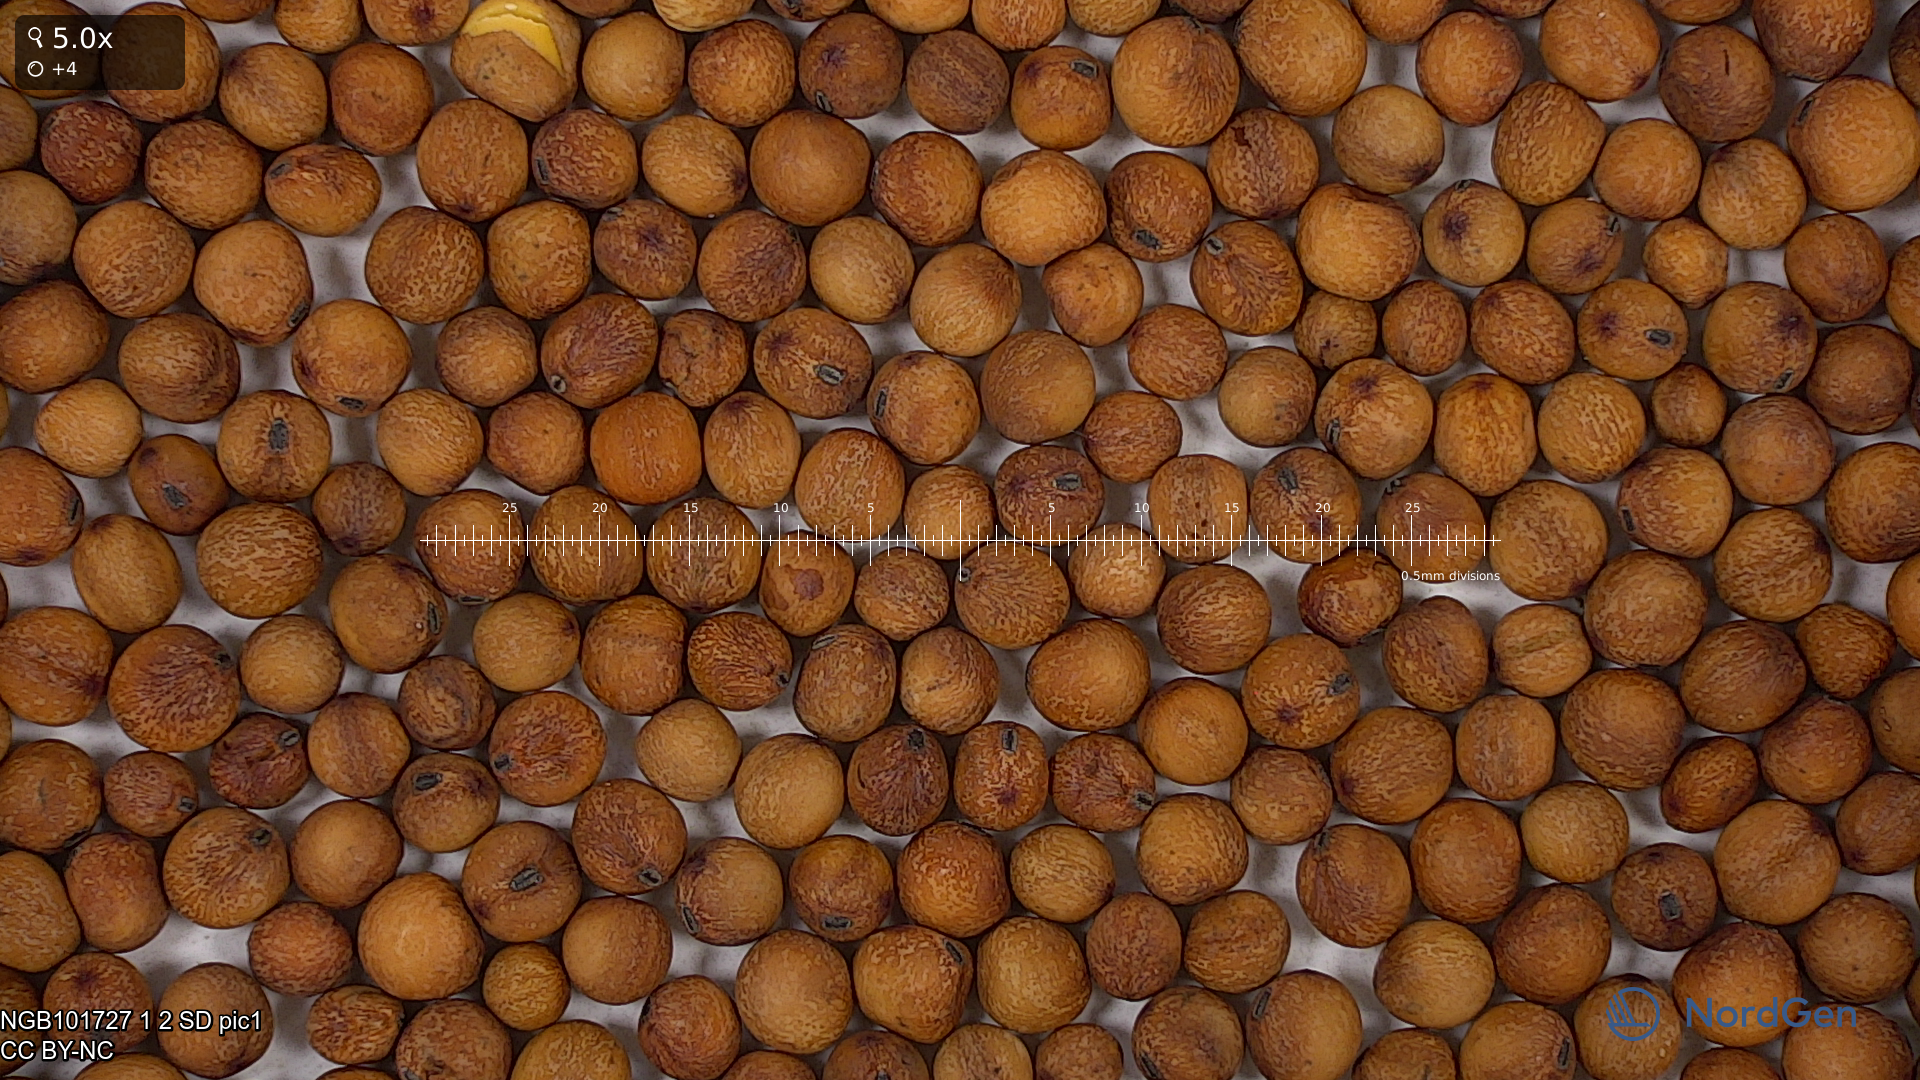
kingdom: Plantae
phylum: Tracheophyta
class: Magnoliopsida
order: Fabales
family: Fabaceae
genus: Lathyrus
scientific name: Lathyrus oleraceus
